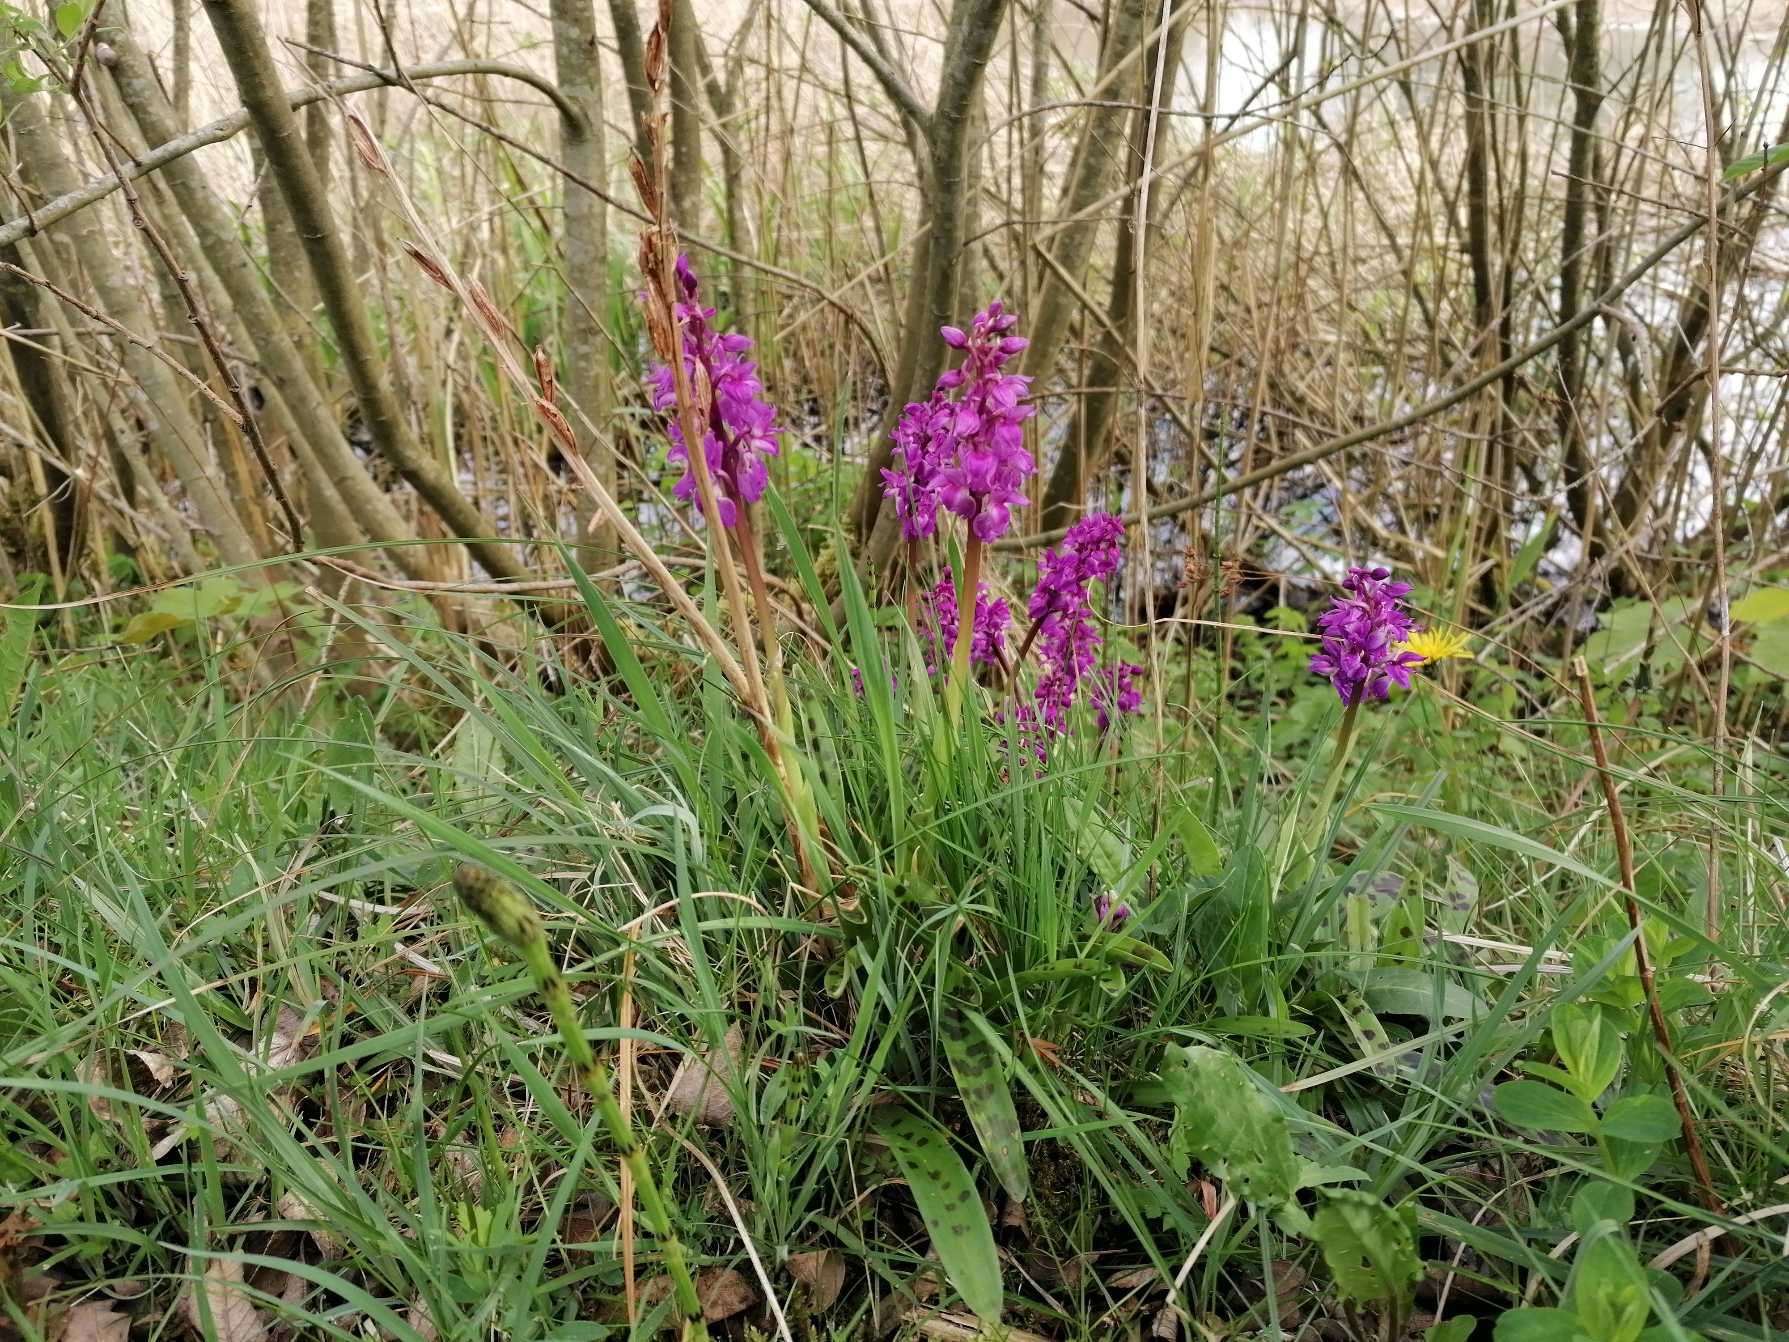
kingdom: Plantae
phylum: Tracheophyta
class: Liliopsida
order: Asparagales
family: Orchidaceae
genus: Orchis
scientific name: Orchis mascula
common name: Tyndakset gøgeurt
